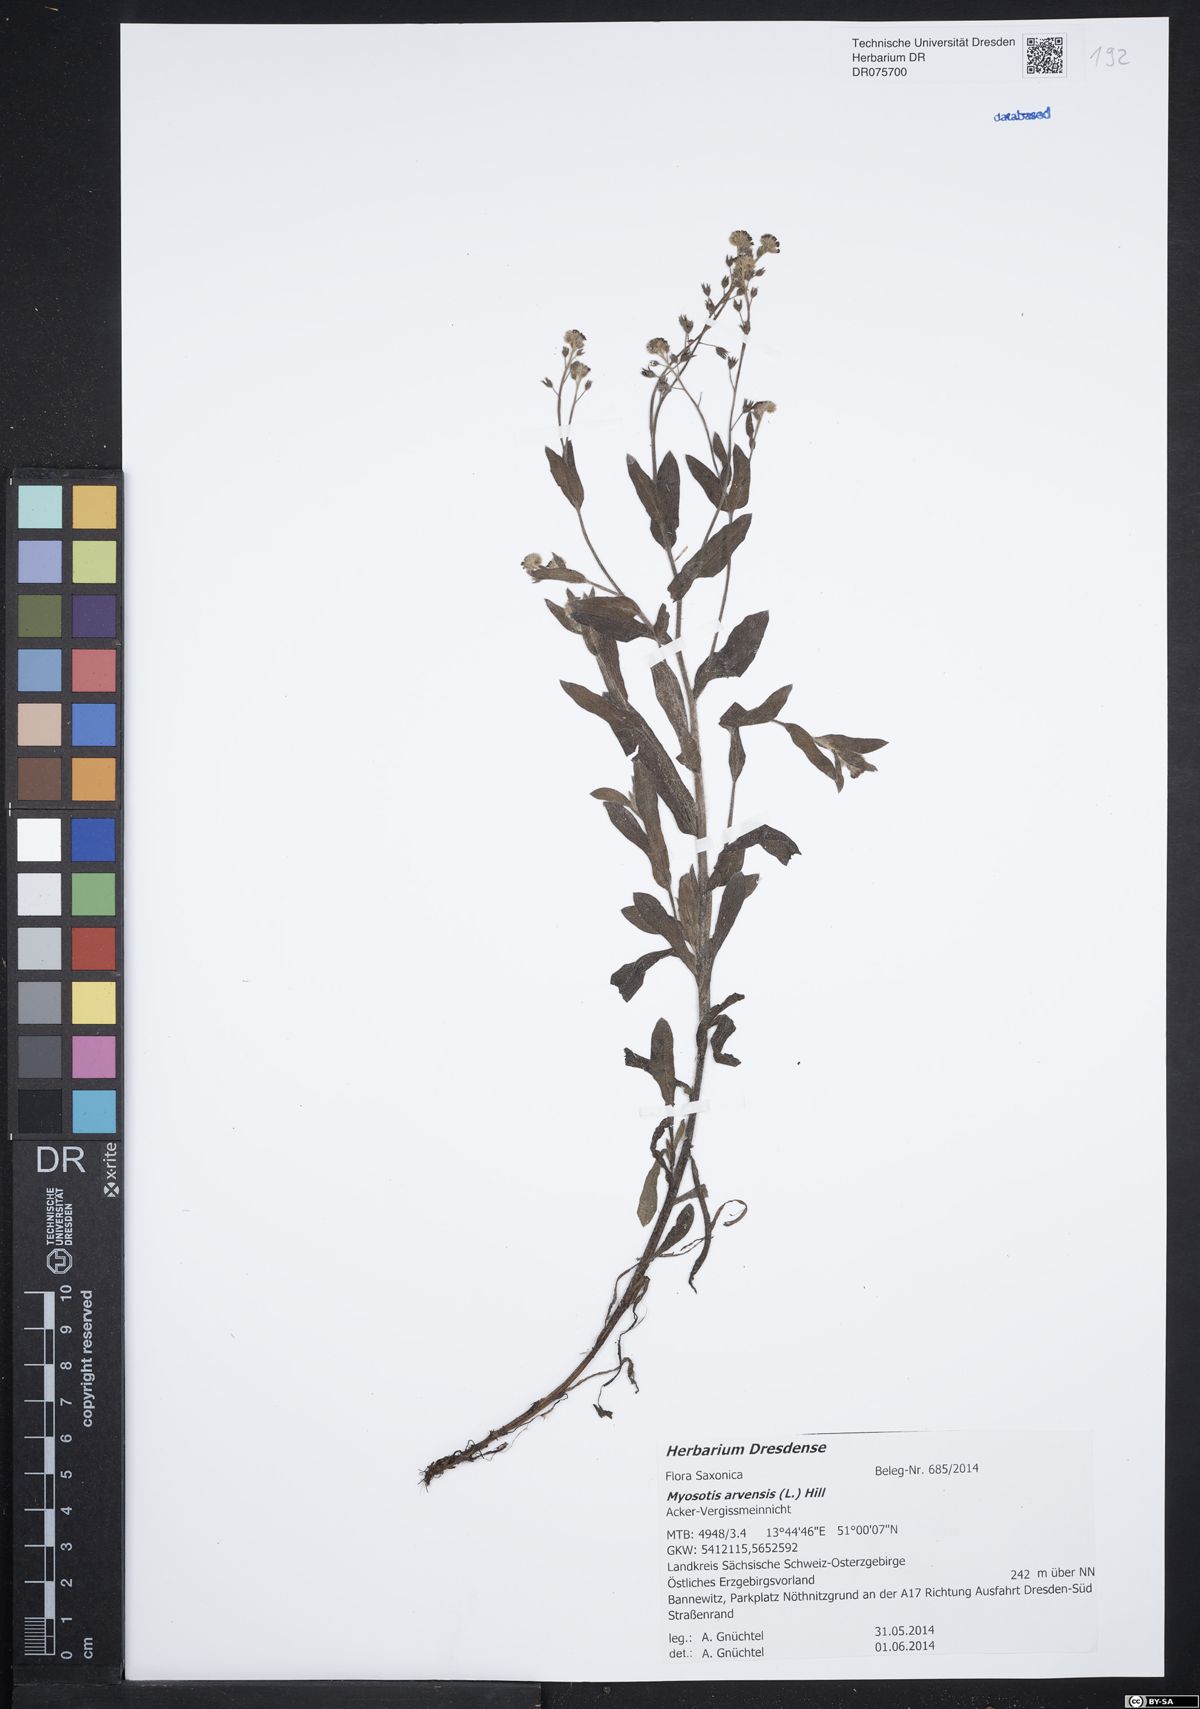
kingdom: Plantae
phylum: Tracheophyta
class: Magnoliopsida
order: Boraginales
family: Boraginaceae
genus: Myosotis
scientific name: Myosotis arvensis
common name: Field forget-me-not
